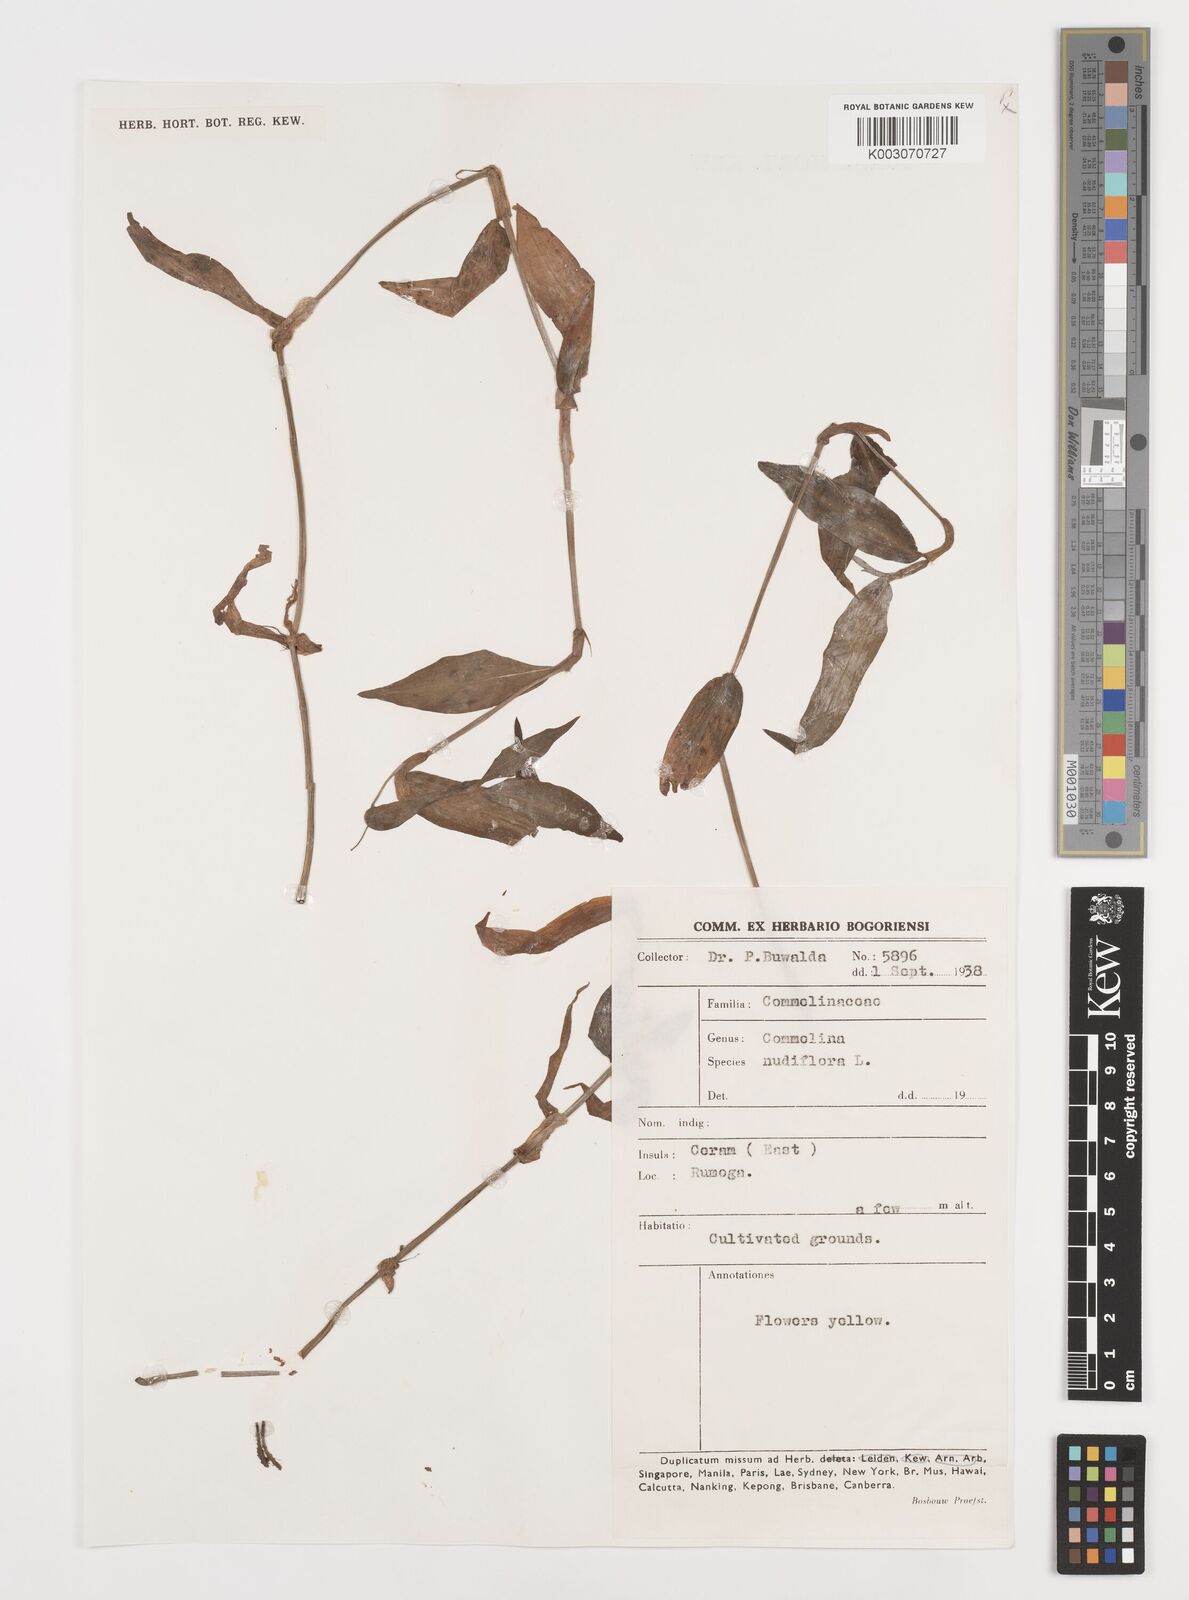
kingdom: Plantae
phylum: Tracheophyta
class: Liliopsida
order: Commelinales
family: Commelinaceae
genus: Commelina
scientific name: Commelina clavata
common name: Willow leaved dayflower
